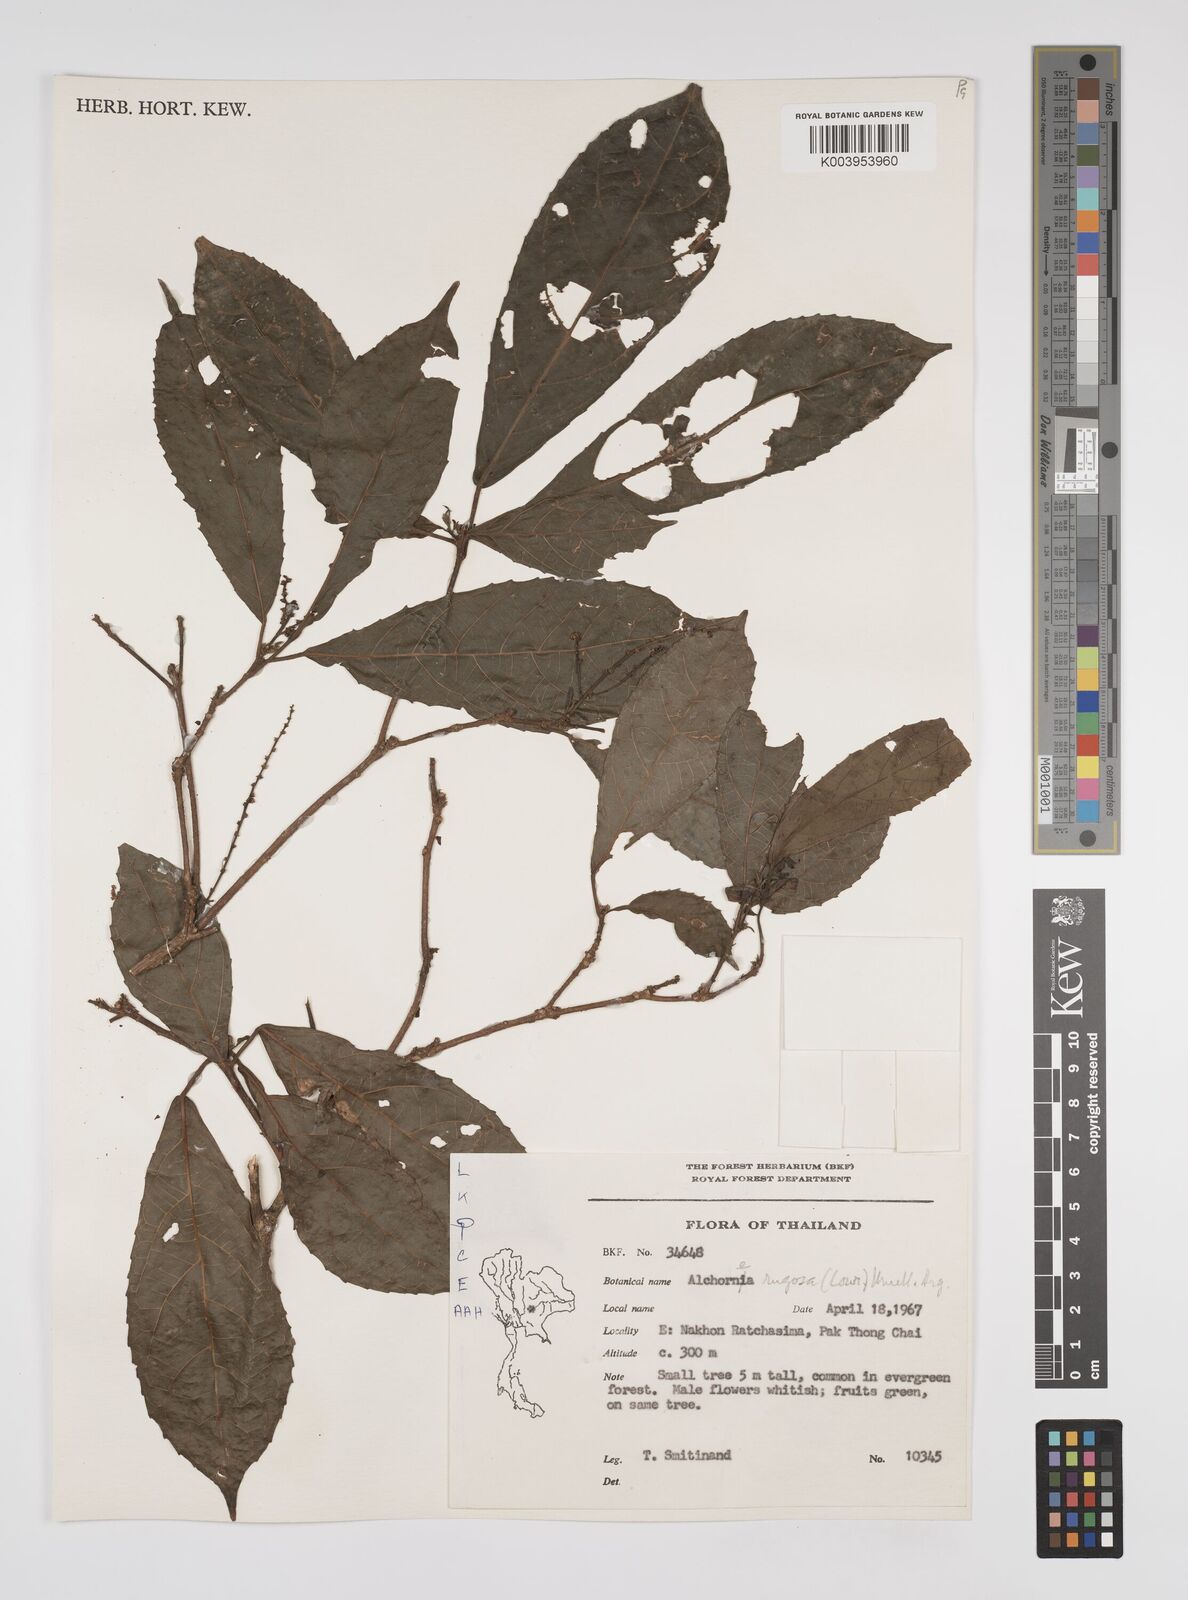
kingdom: Plantae
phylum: Tracheophyta
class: Magnoliopsida
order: Malpighiales
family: Euphorbiaceae
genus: Alchornea
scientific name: Alchornea rugosa
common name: Alchorntree
